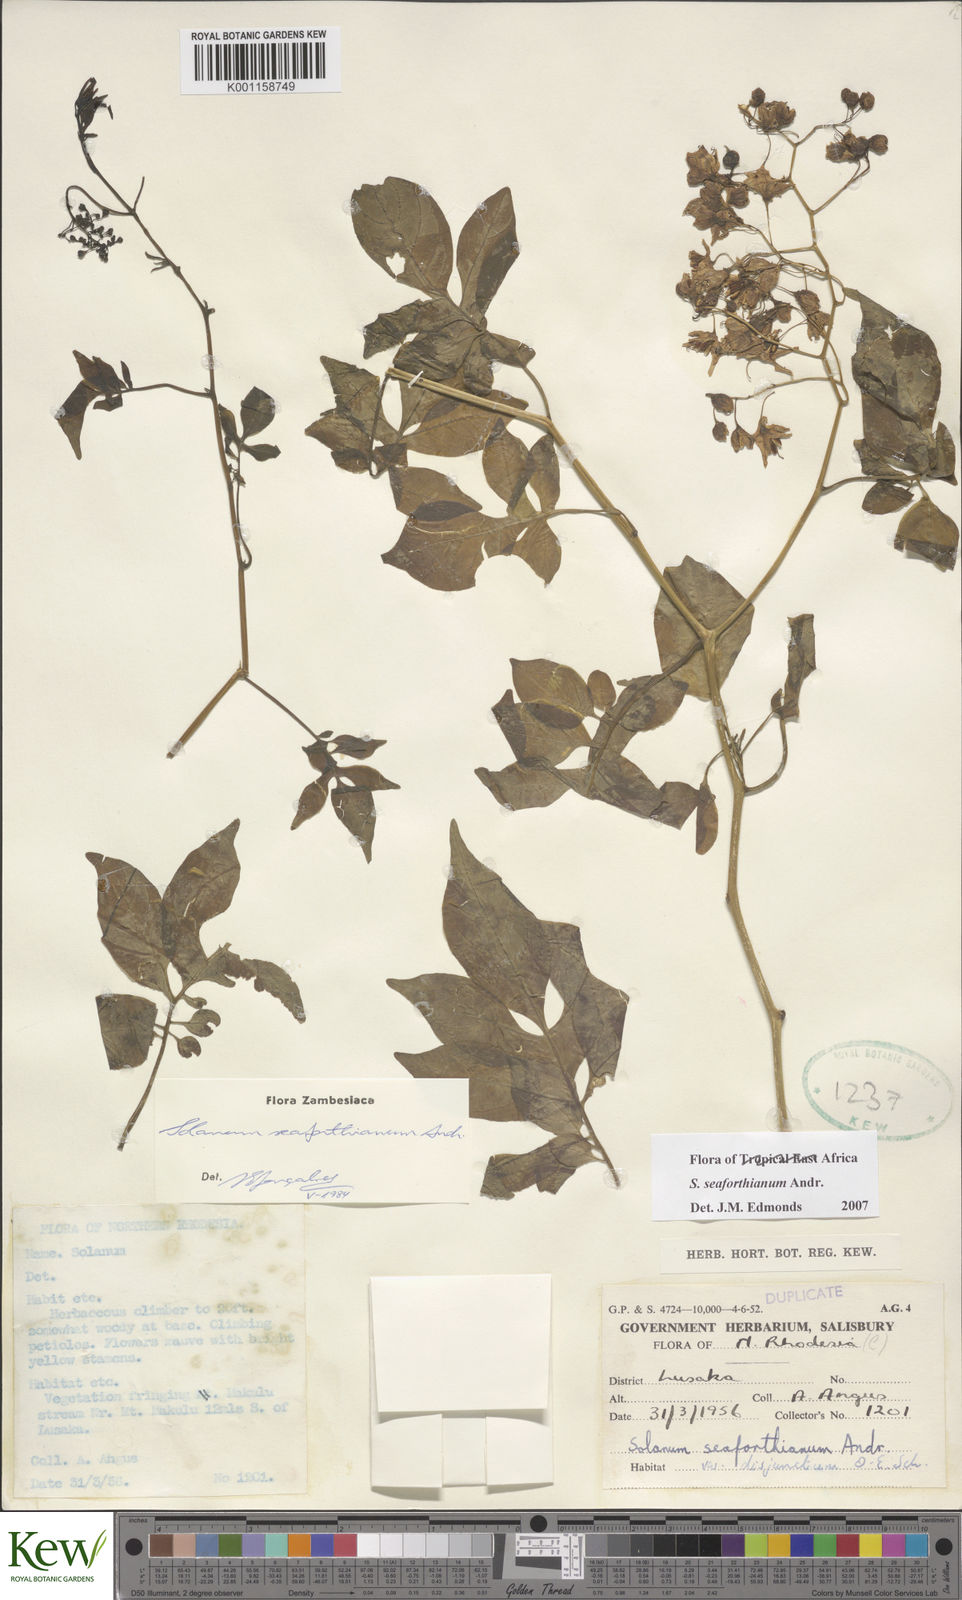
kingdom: Plantae
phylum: Tracheophyta
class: Magnoliopsida
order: Solanales
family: Solanaceae
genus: Solanum
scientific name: Solanum seaforthianum
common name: Brazilian nightshade
